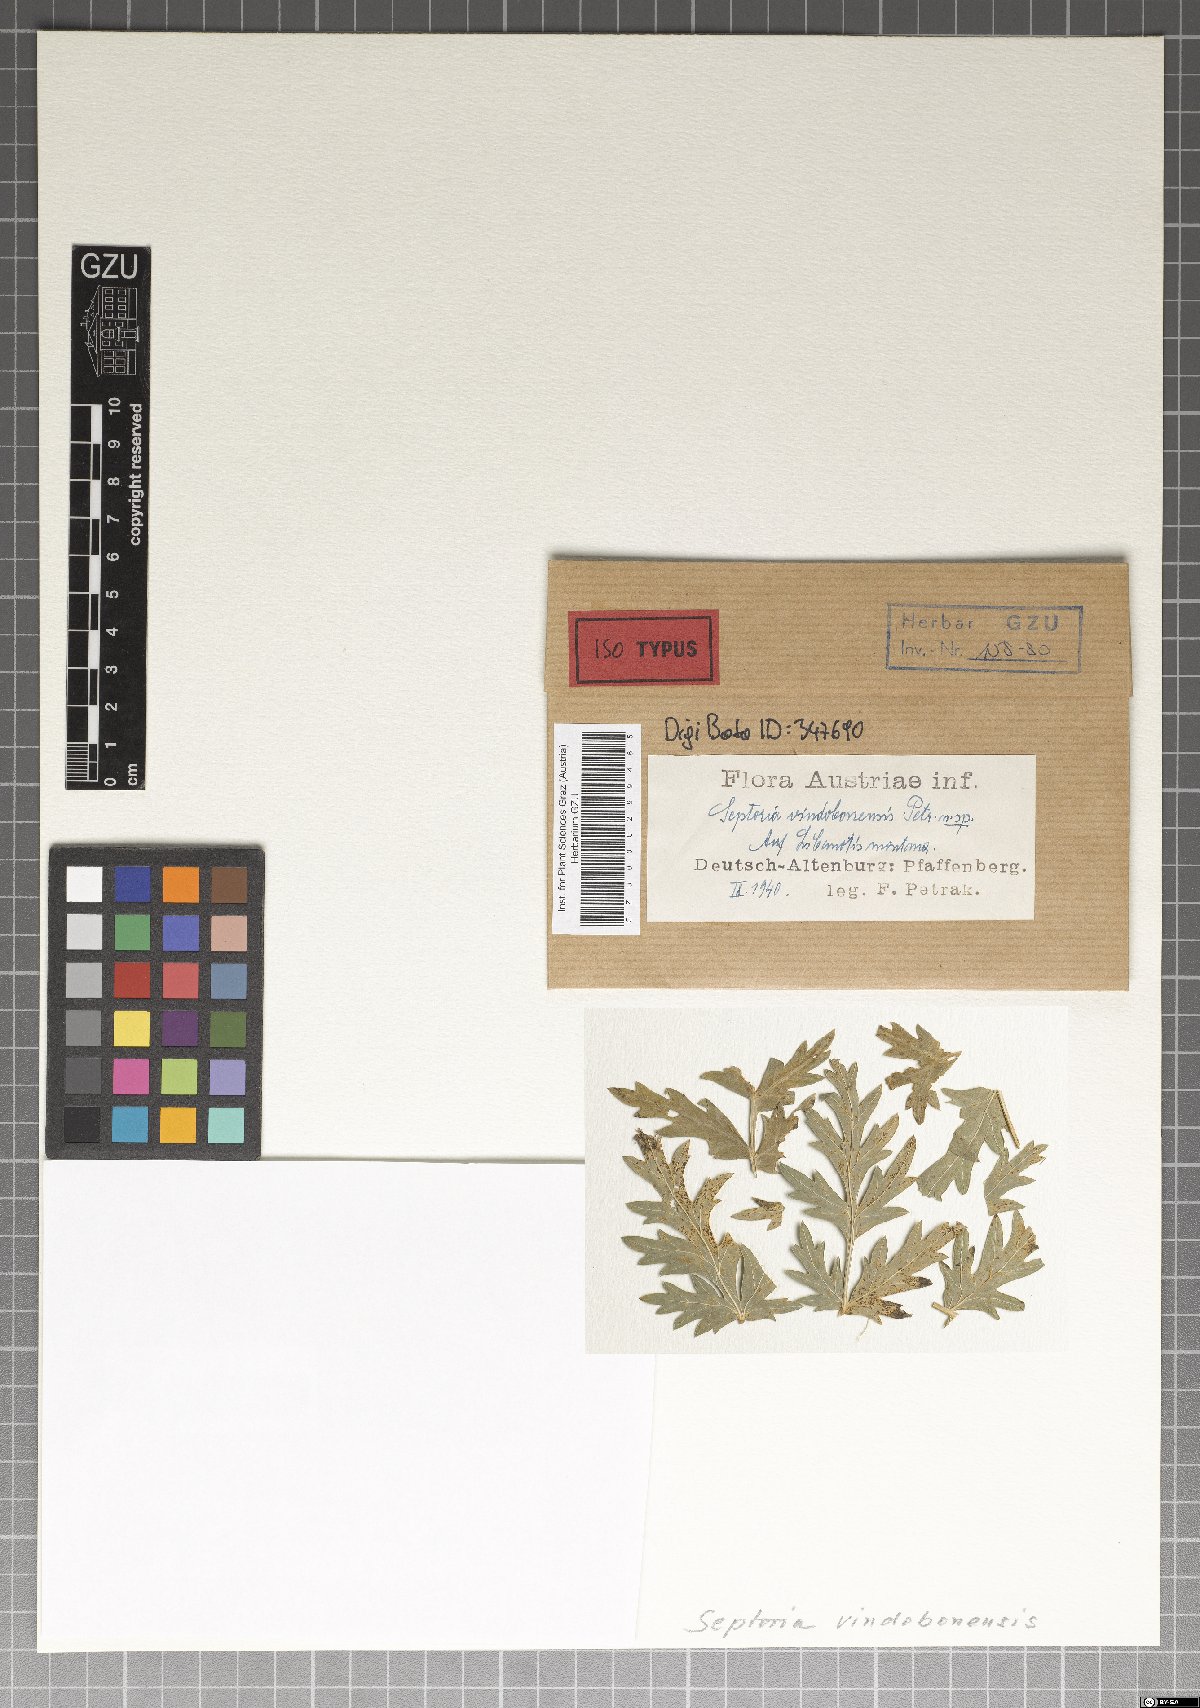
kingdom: Fungi
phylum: Ascomycota
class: Dothideomycetes
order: Mycosphaerellales
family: Mycosphaerellaceae
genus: Septoria
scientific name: Septoria
